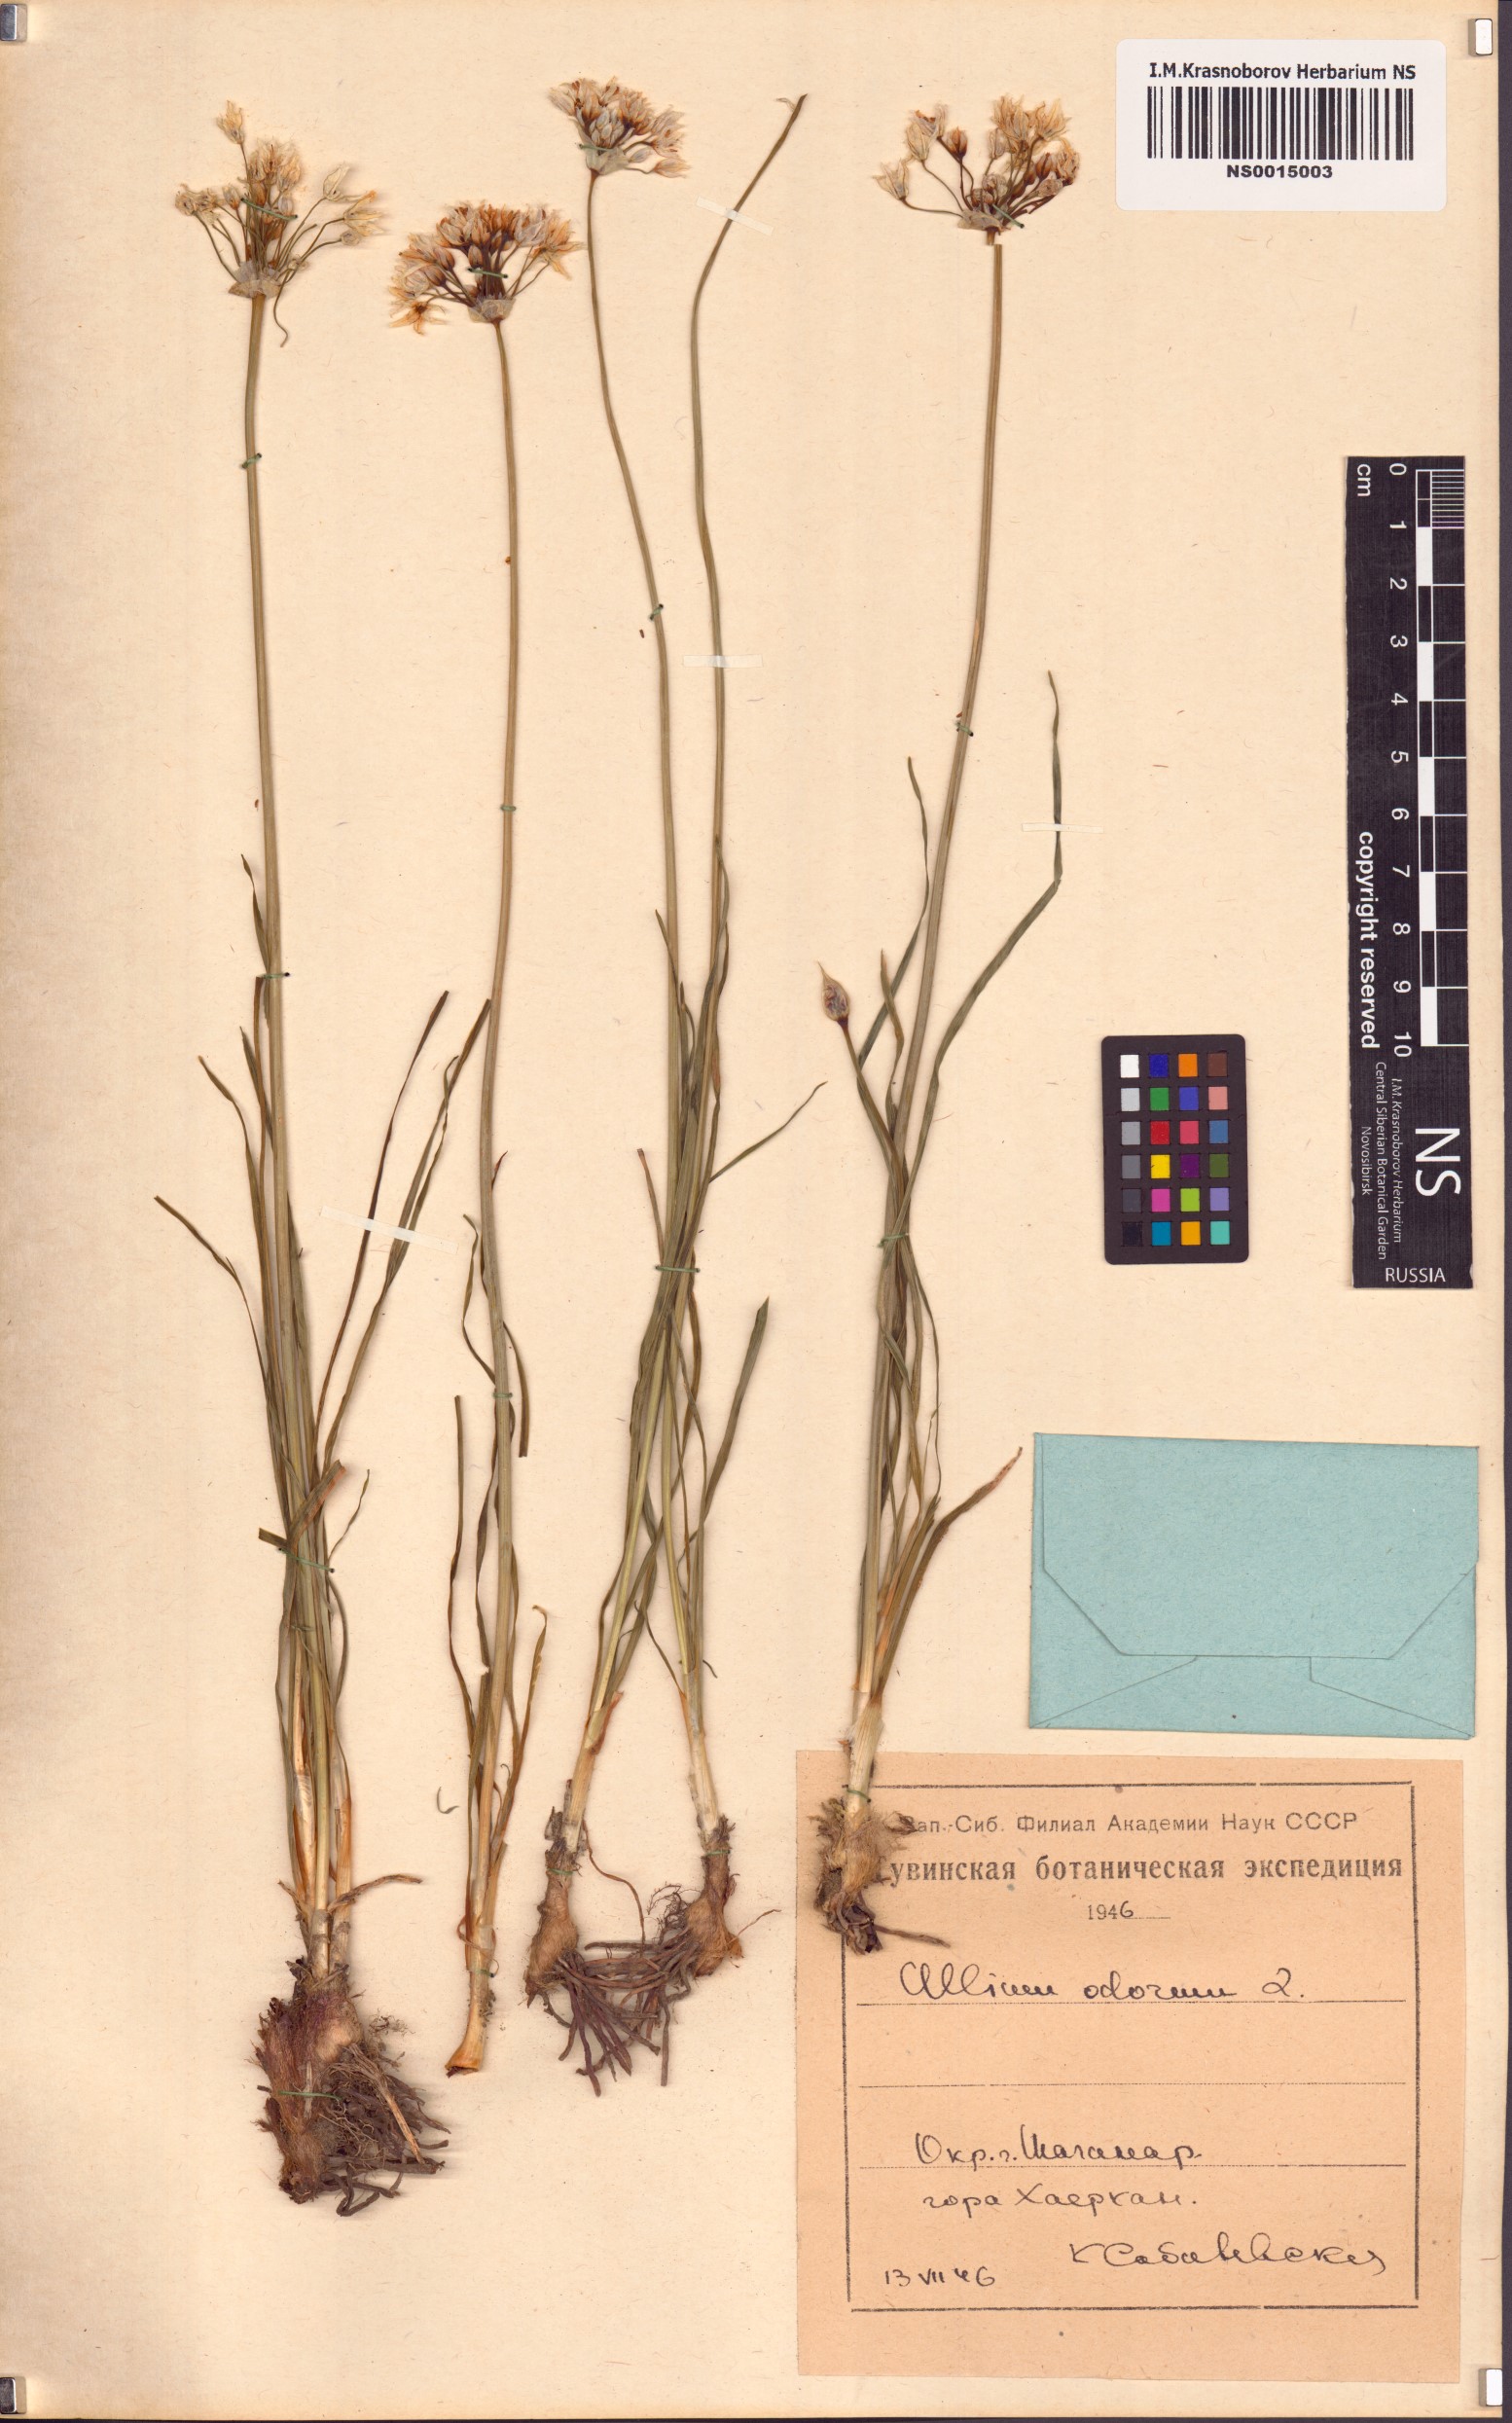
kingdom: Plantae
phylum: Tracheophyta
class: Liliopsida
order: Asparagales
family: Amaryllidaceae
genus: Allium
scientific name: Allium ramosum
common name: Fragrant garlic
